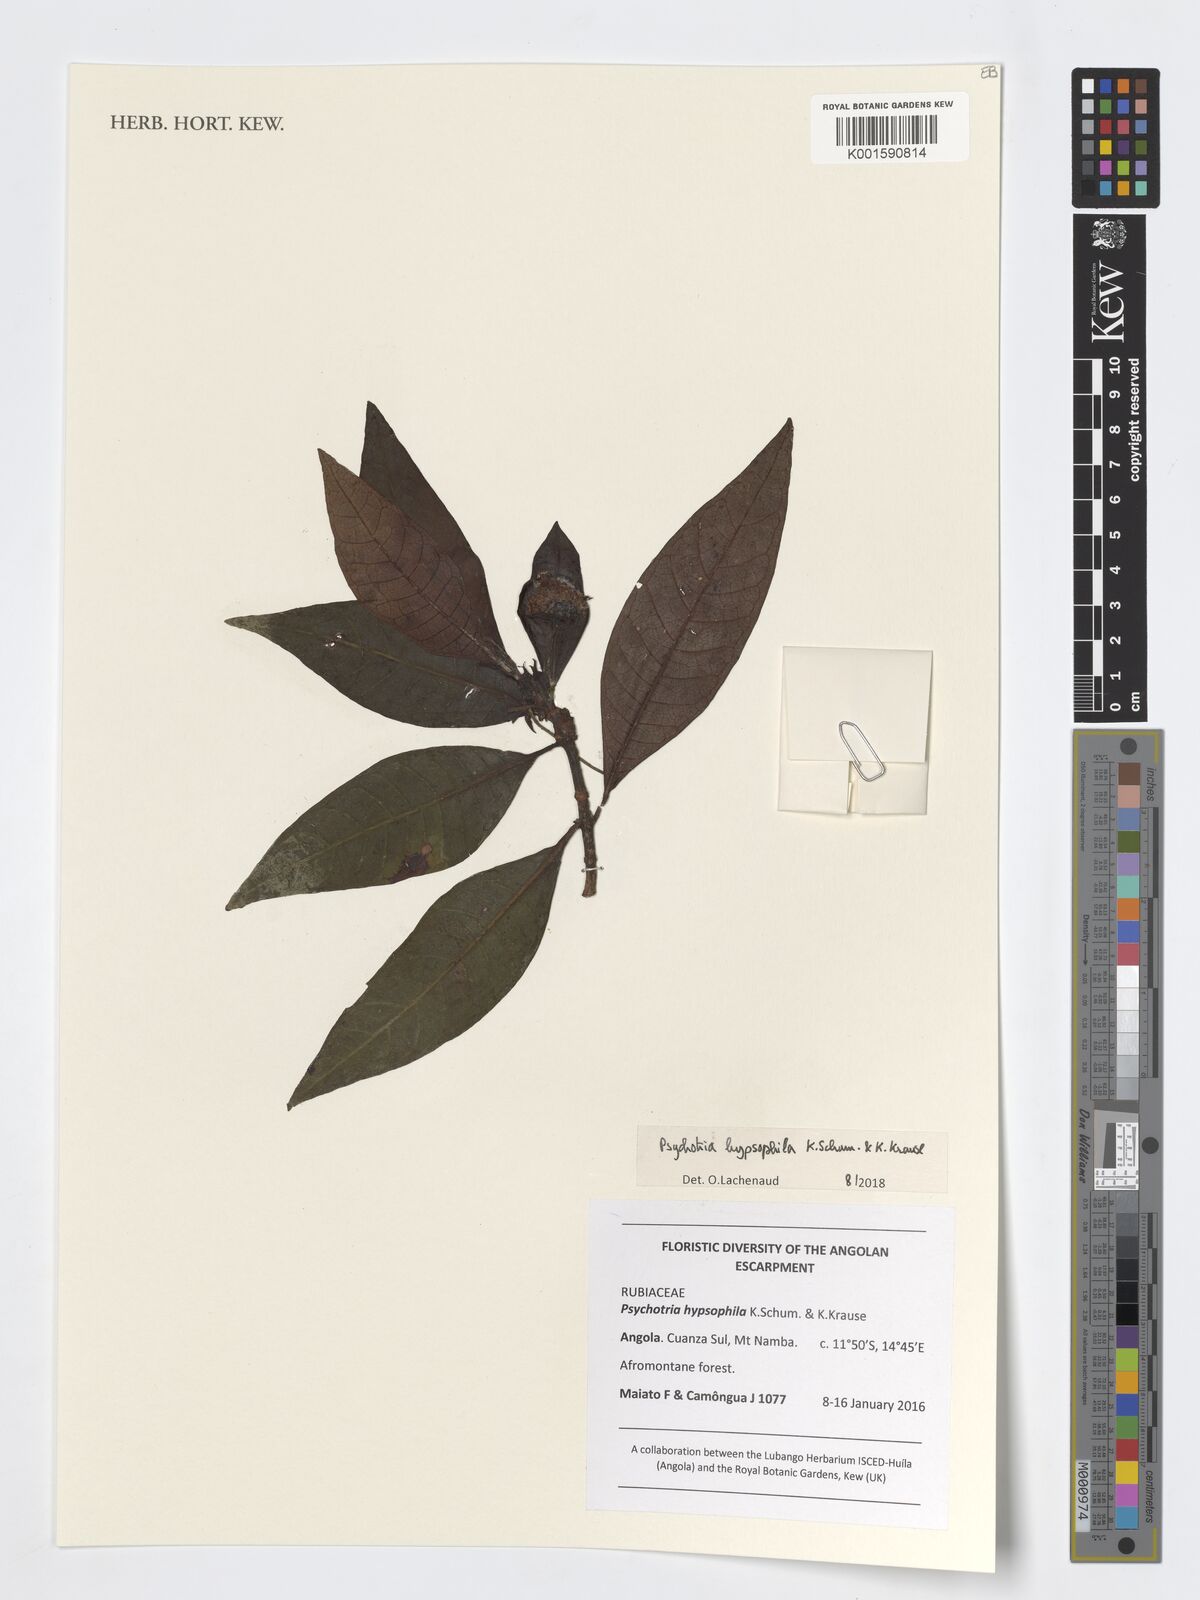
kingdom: Plantae
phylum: Tracheophyta
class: Magnoliopsida
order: Gentianales
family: Rubiaceae
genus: Psychotria
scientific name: Psychotria peduncularis
